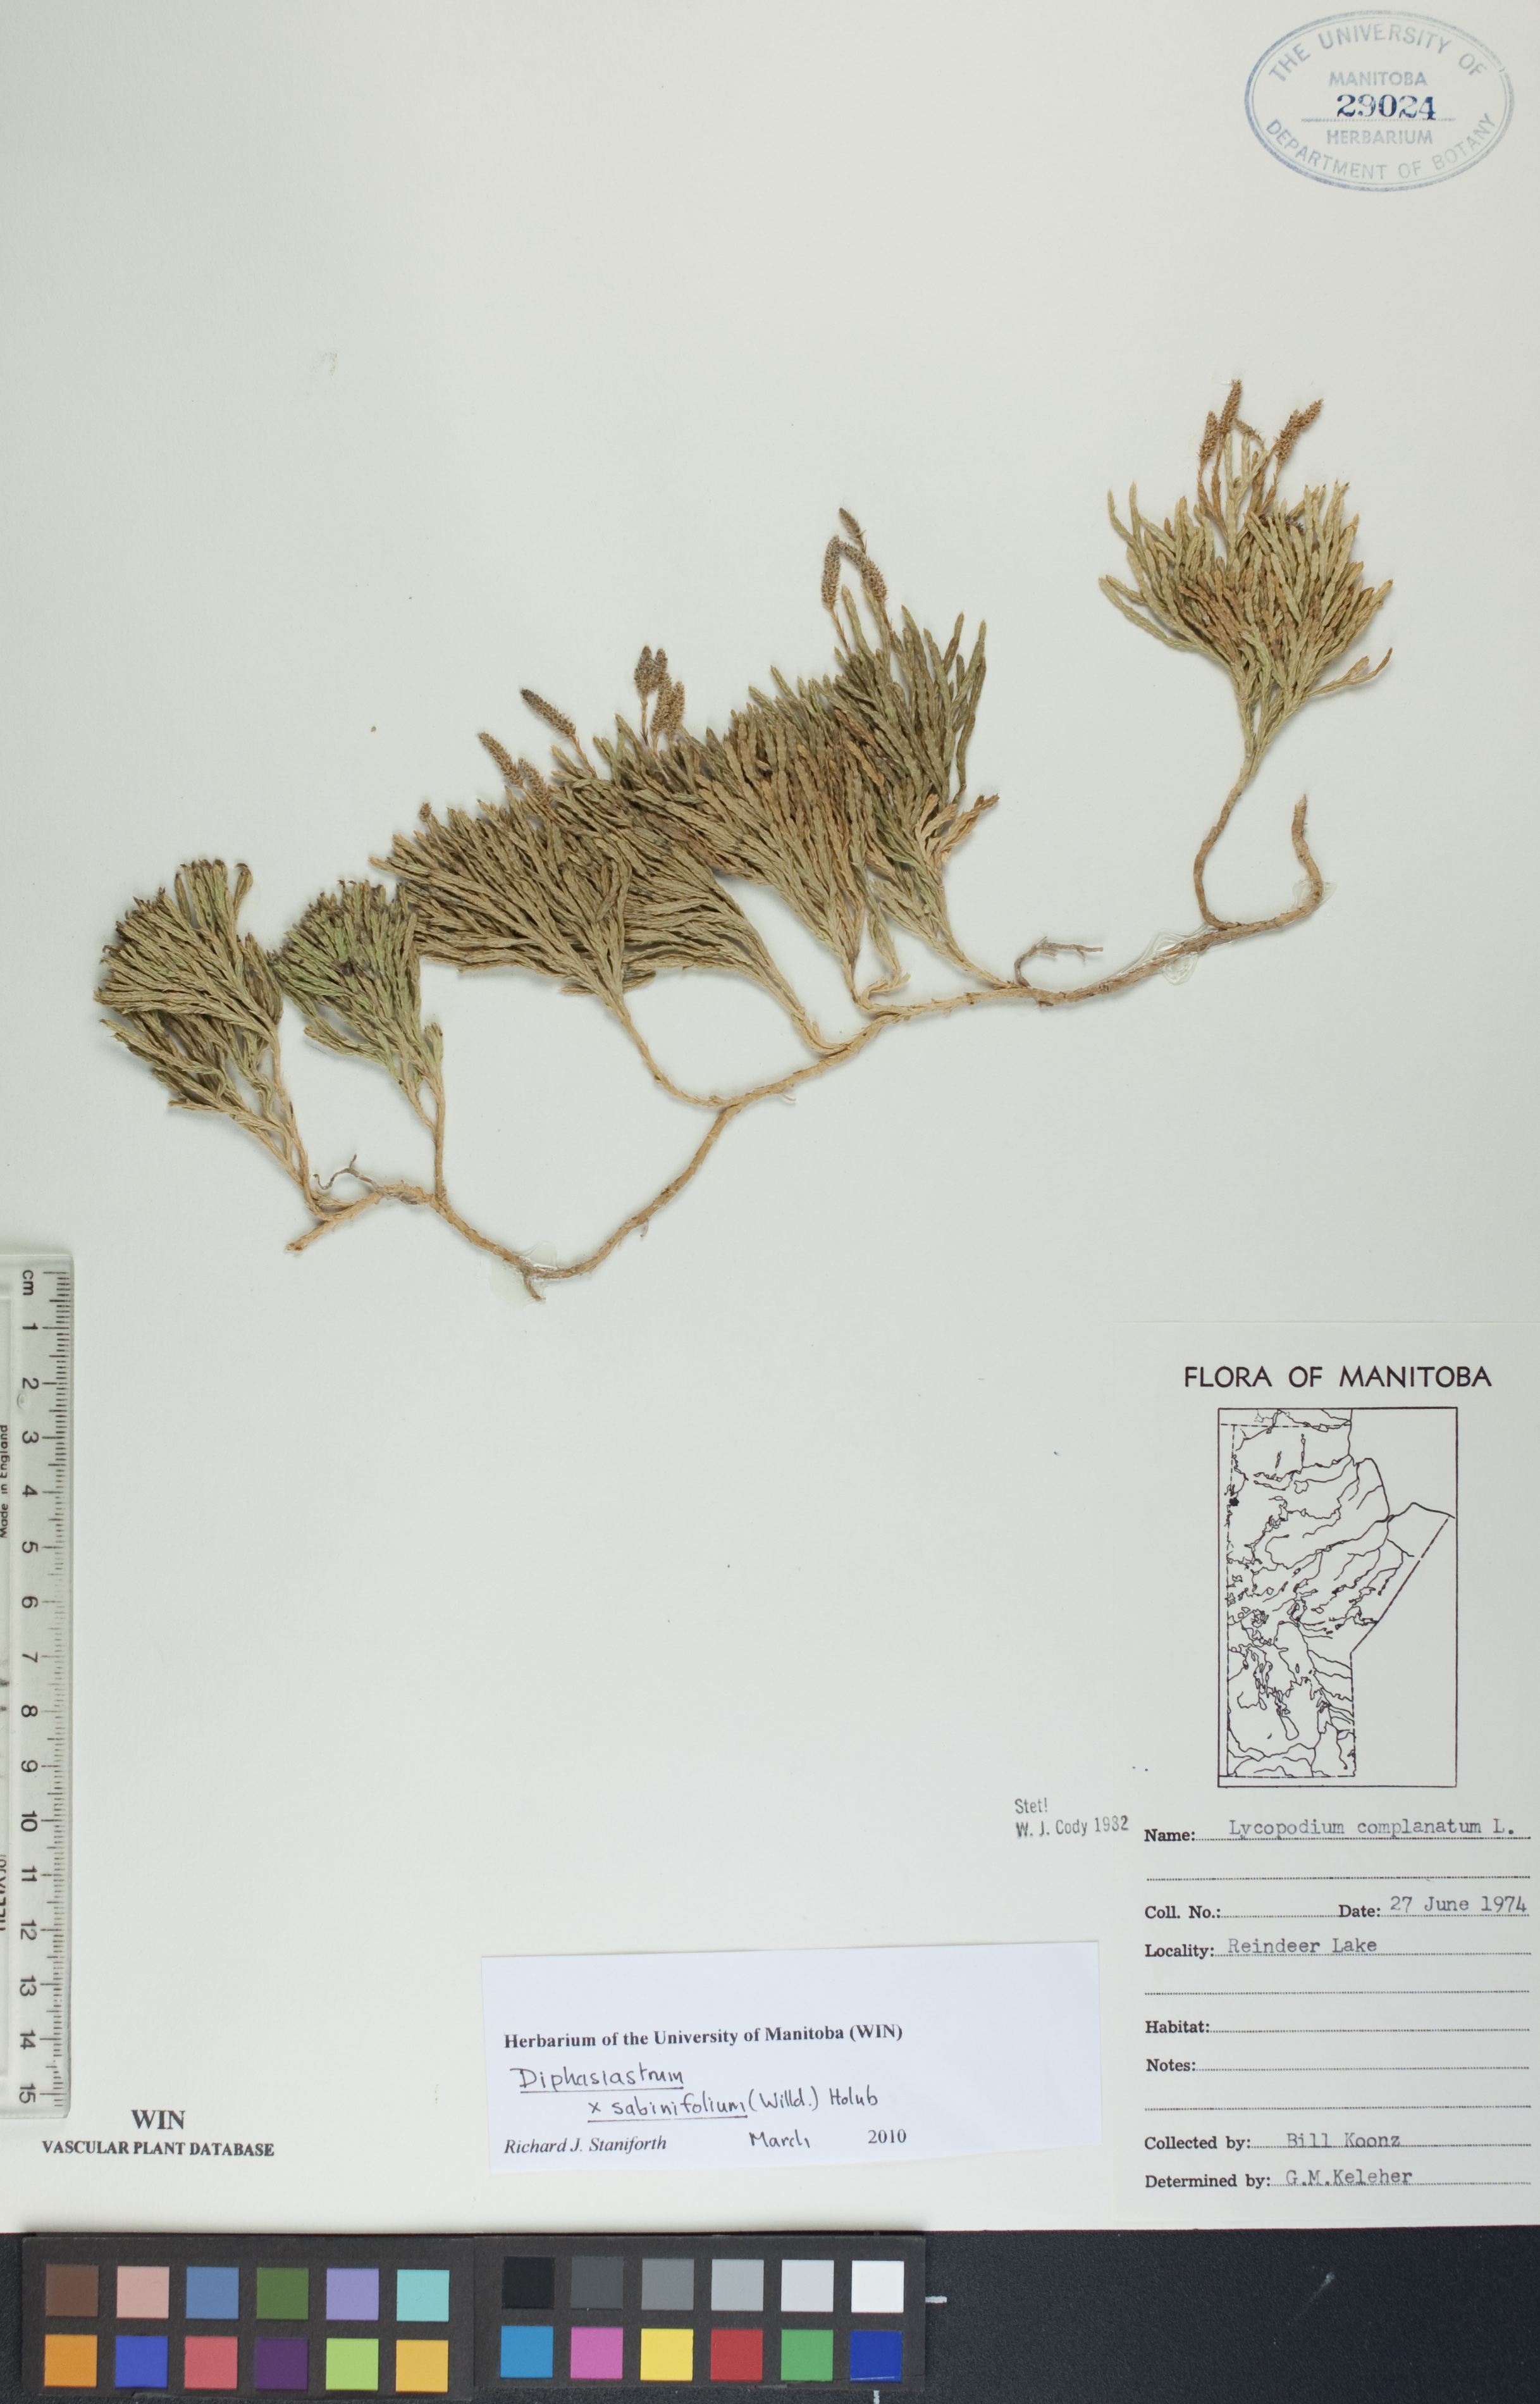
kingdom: Plantae
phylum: Tracheophyta
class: Lycopodiopsida
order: Lycopodiales
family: Lycopodiaceae
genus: Diphasiastrum
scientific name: Diphasiastrum sabinifolium
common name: Juniper clubmoss
